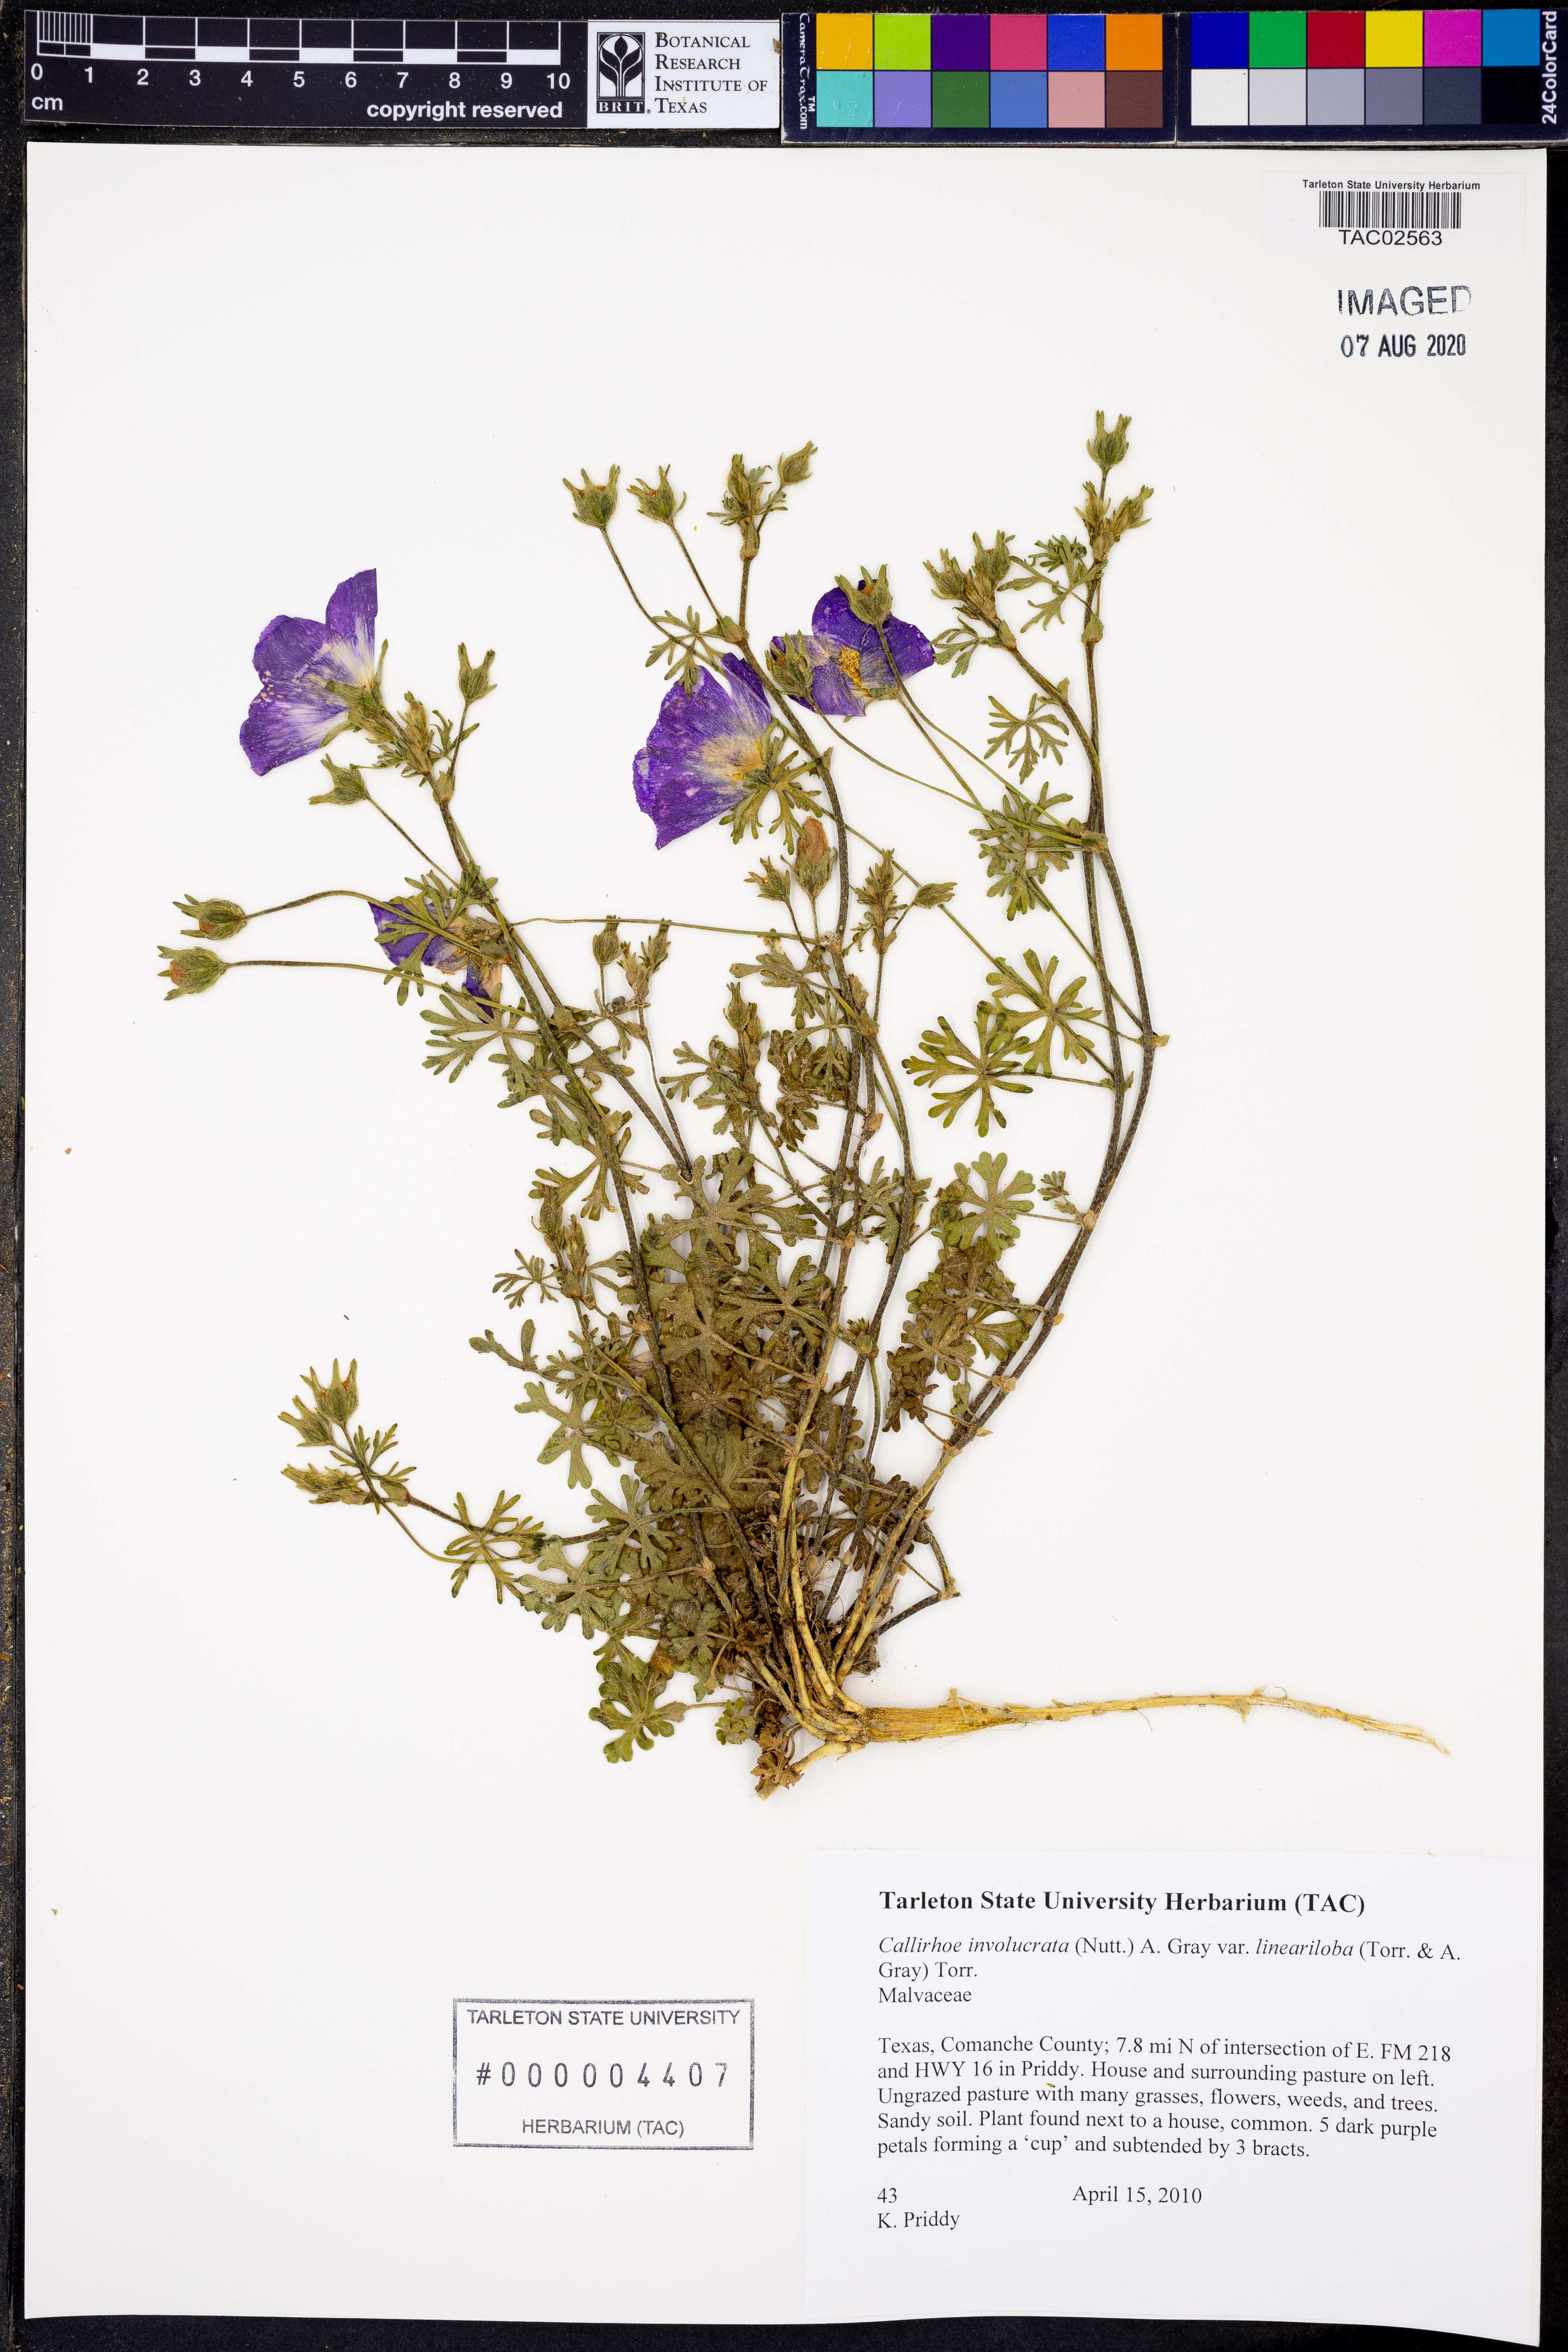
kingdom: Plantae
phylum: Tracheophyta
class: Magnoliopsida
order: Malvales
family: Malvaceae
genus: Callirhoe
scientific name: Callirhoe involucrata
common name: Purple poppy-mallow
